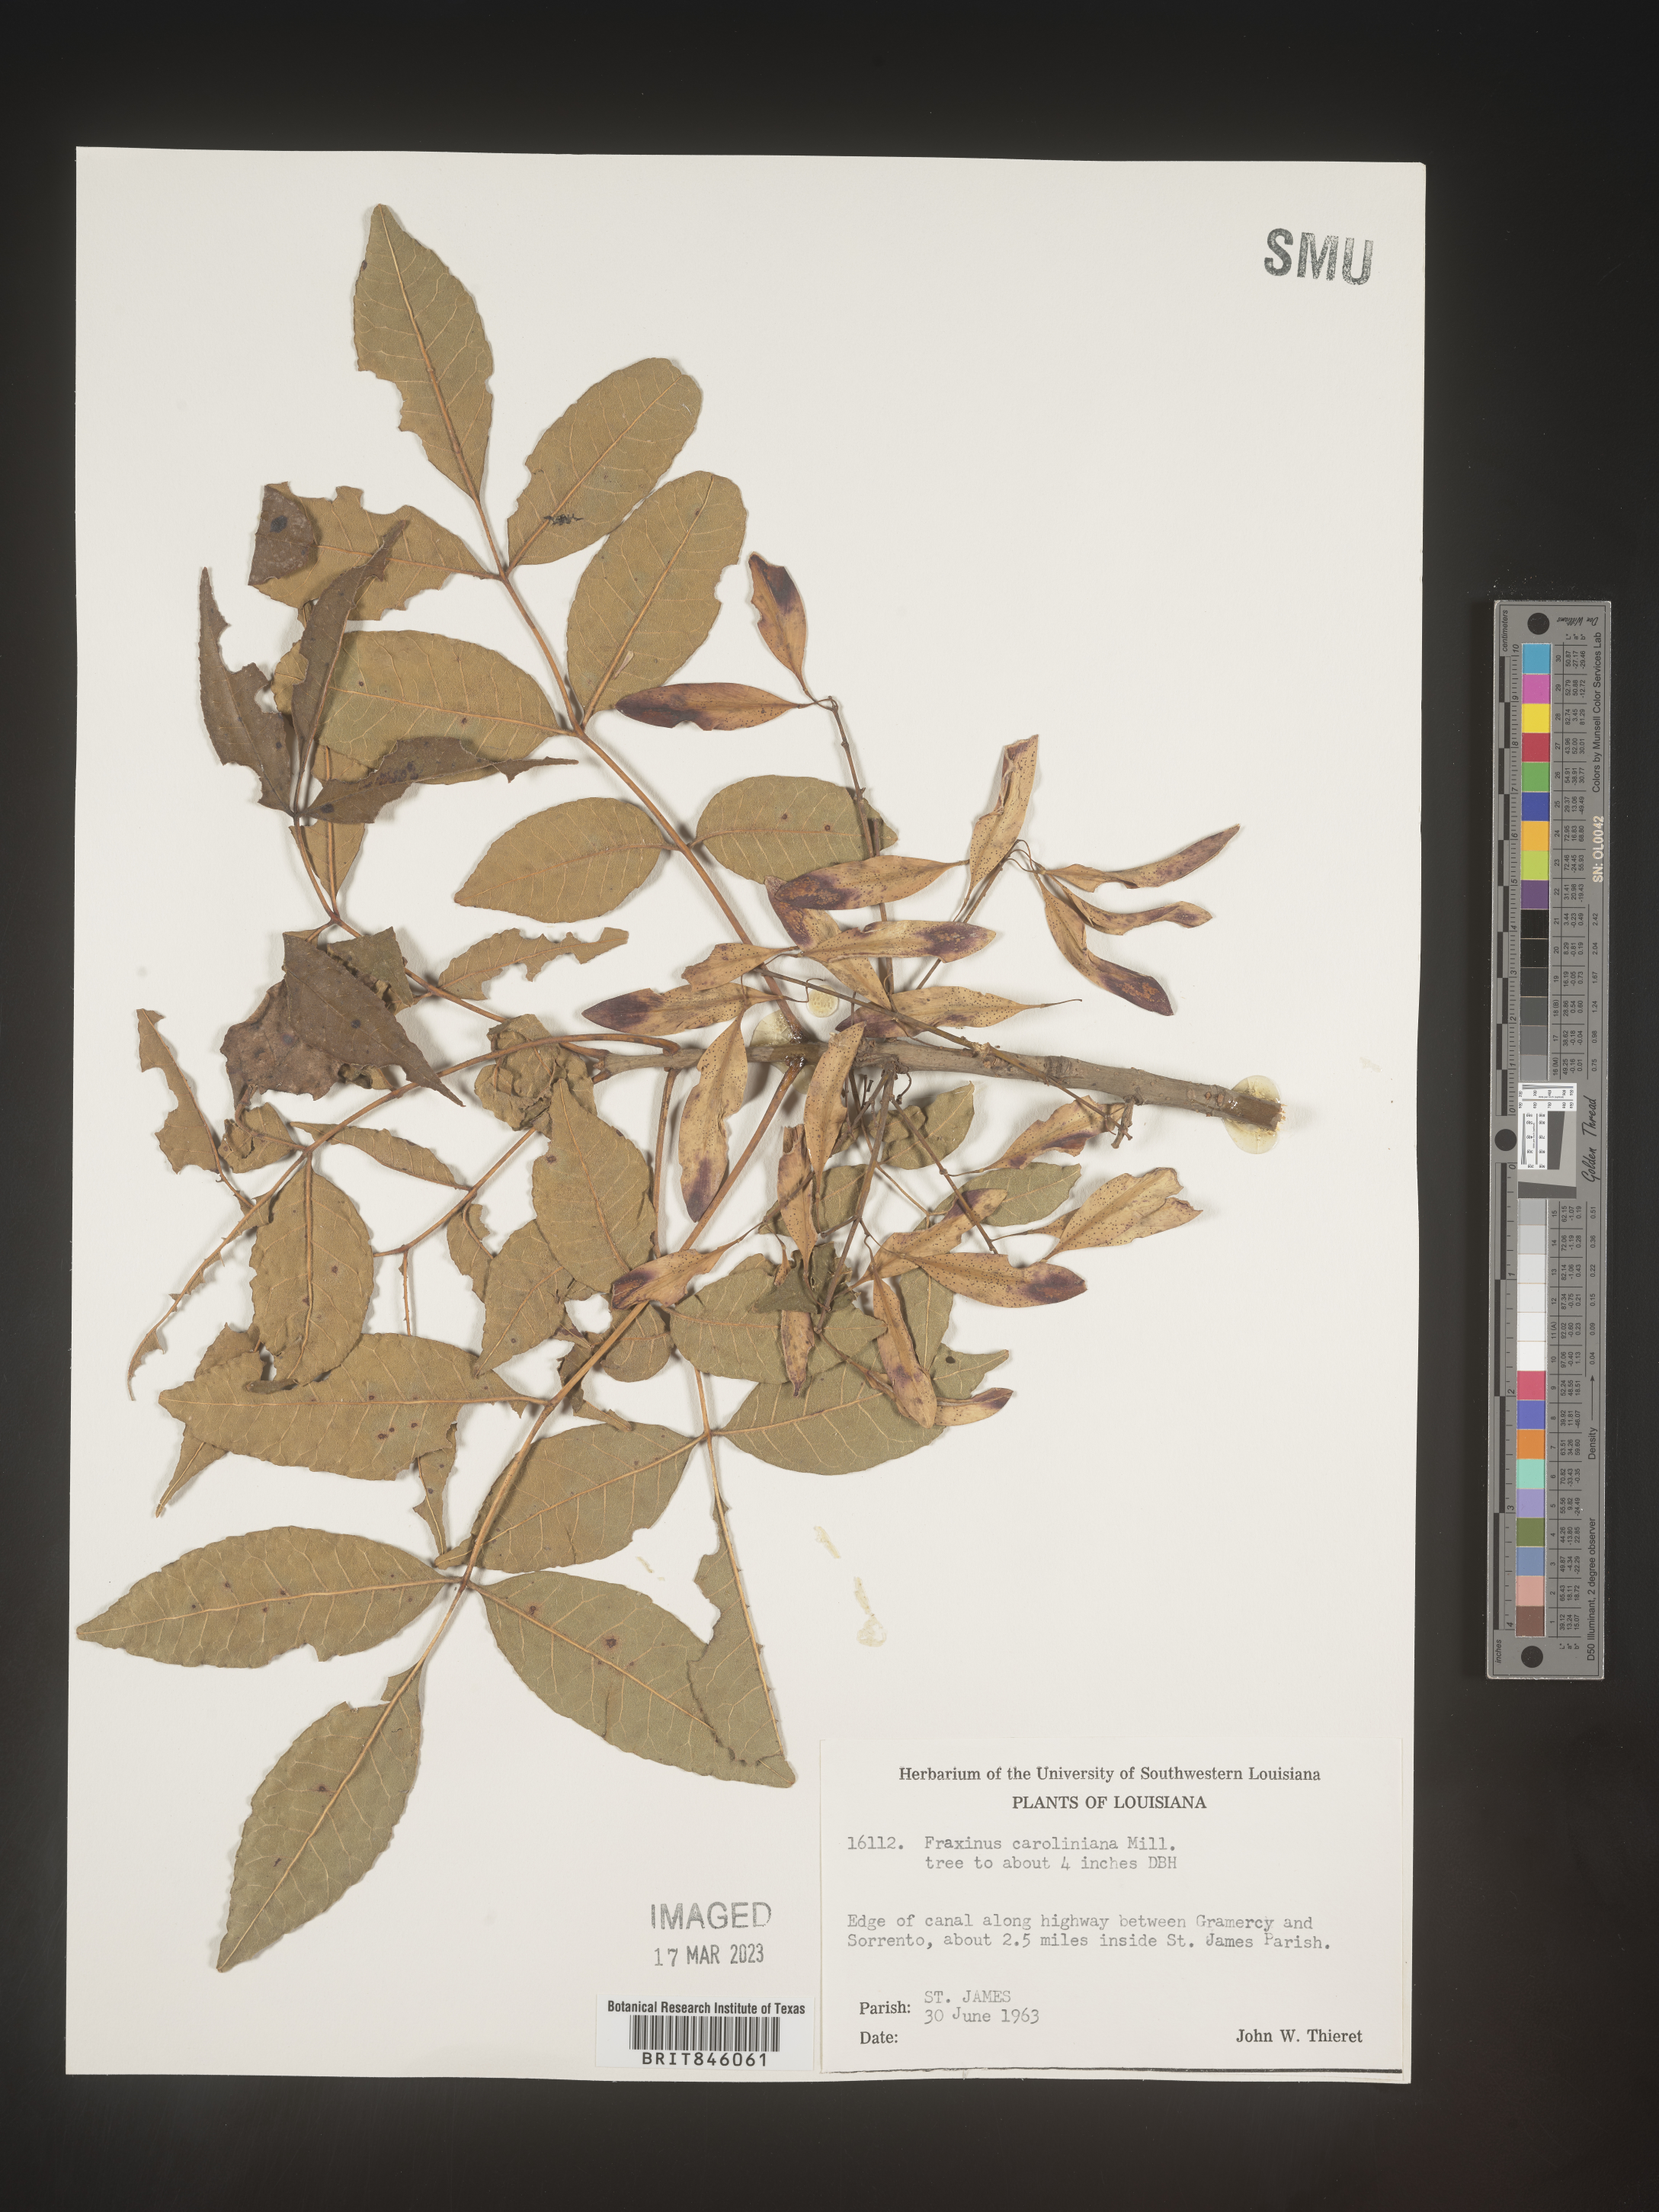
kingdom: Plantae
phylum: Tracheophyta
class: Magnoliopsida
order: Lamiales
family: Oleaceae
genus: Fraxinus
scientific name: Fraxinus caroliniana
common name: Carolina ash
